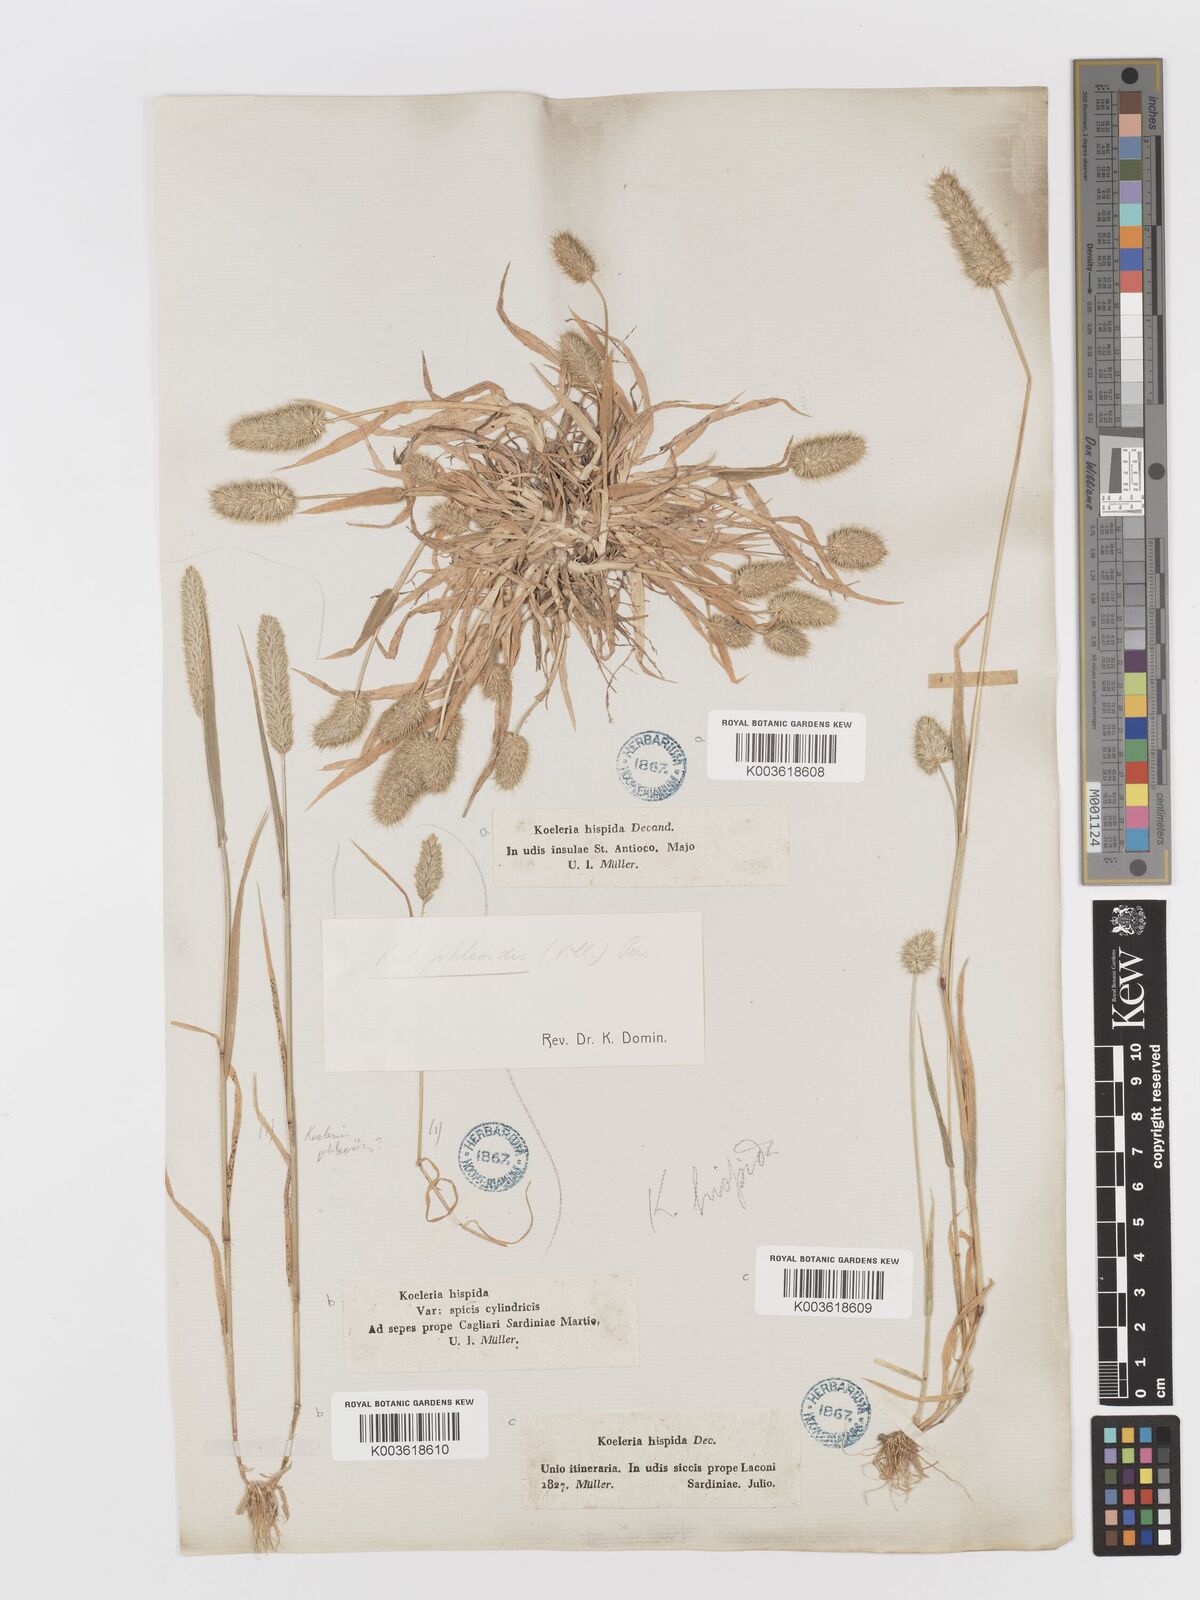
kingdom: Plantae
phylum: Tracheophyta
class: Liliopsida
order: Poales
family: Poaceae
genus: Rostraria
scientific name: Rostraria hispida
